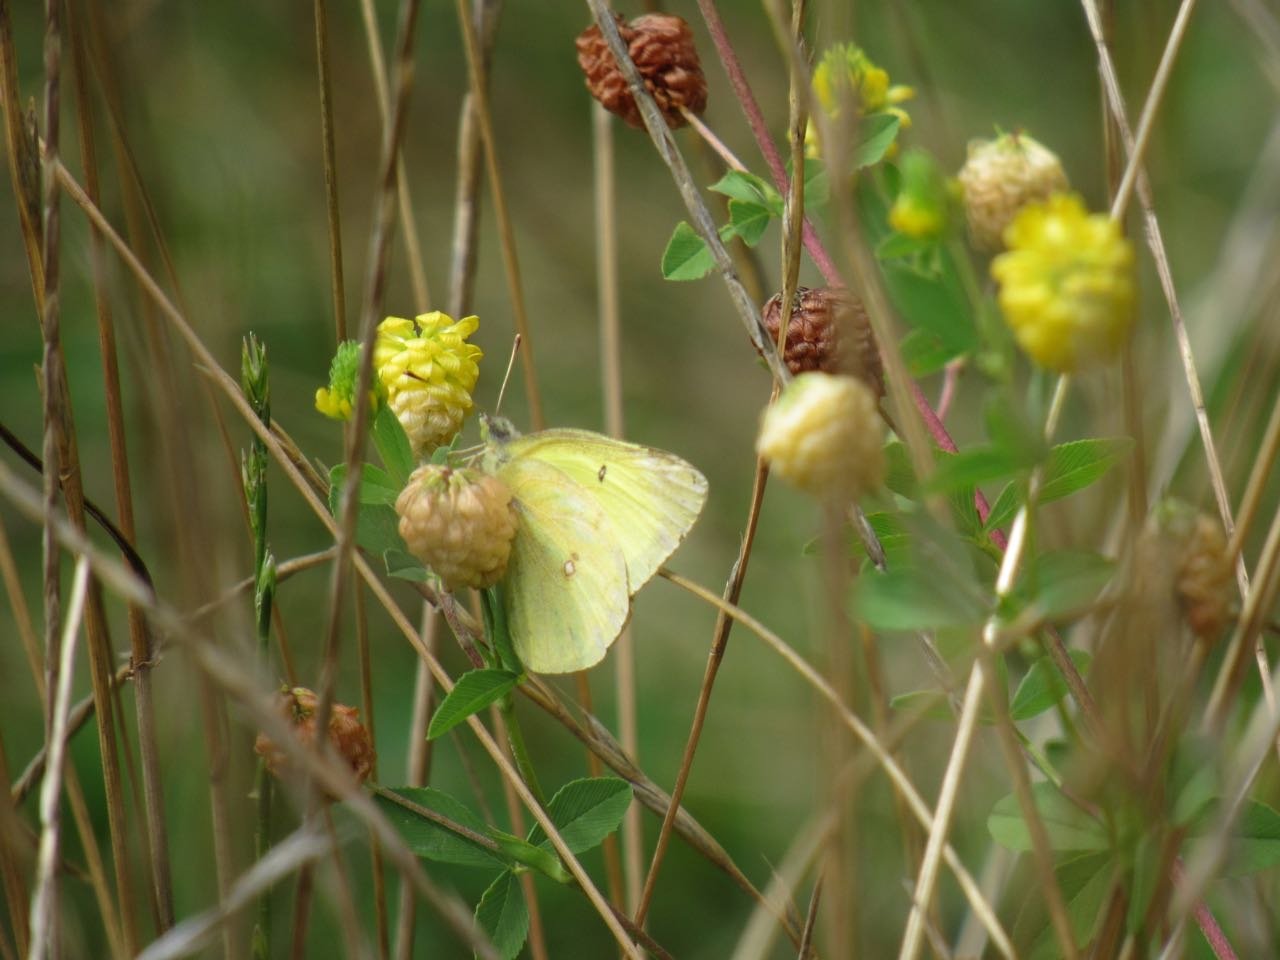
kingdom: Animalia
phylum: Arthropoda
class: Insecta
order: Lepidoptera
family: Pieridae
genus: Colias
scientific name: Colias philodice
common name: Clouded Sulphur
